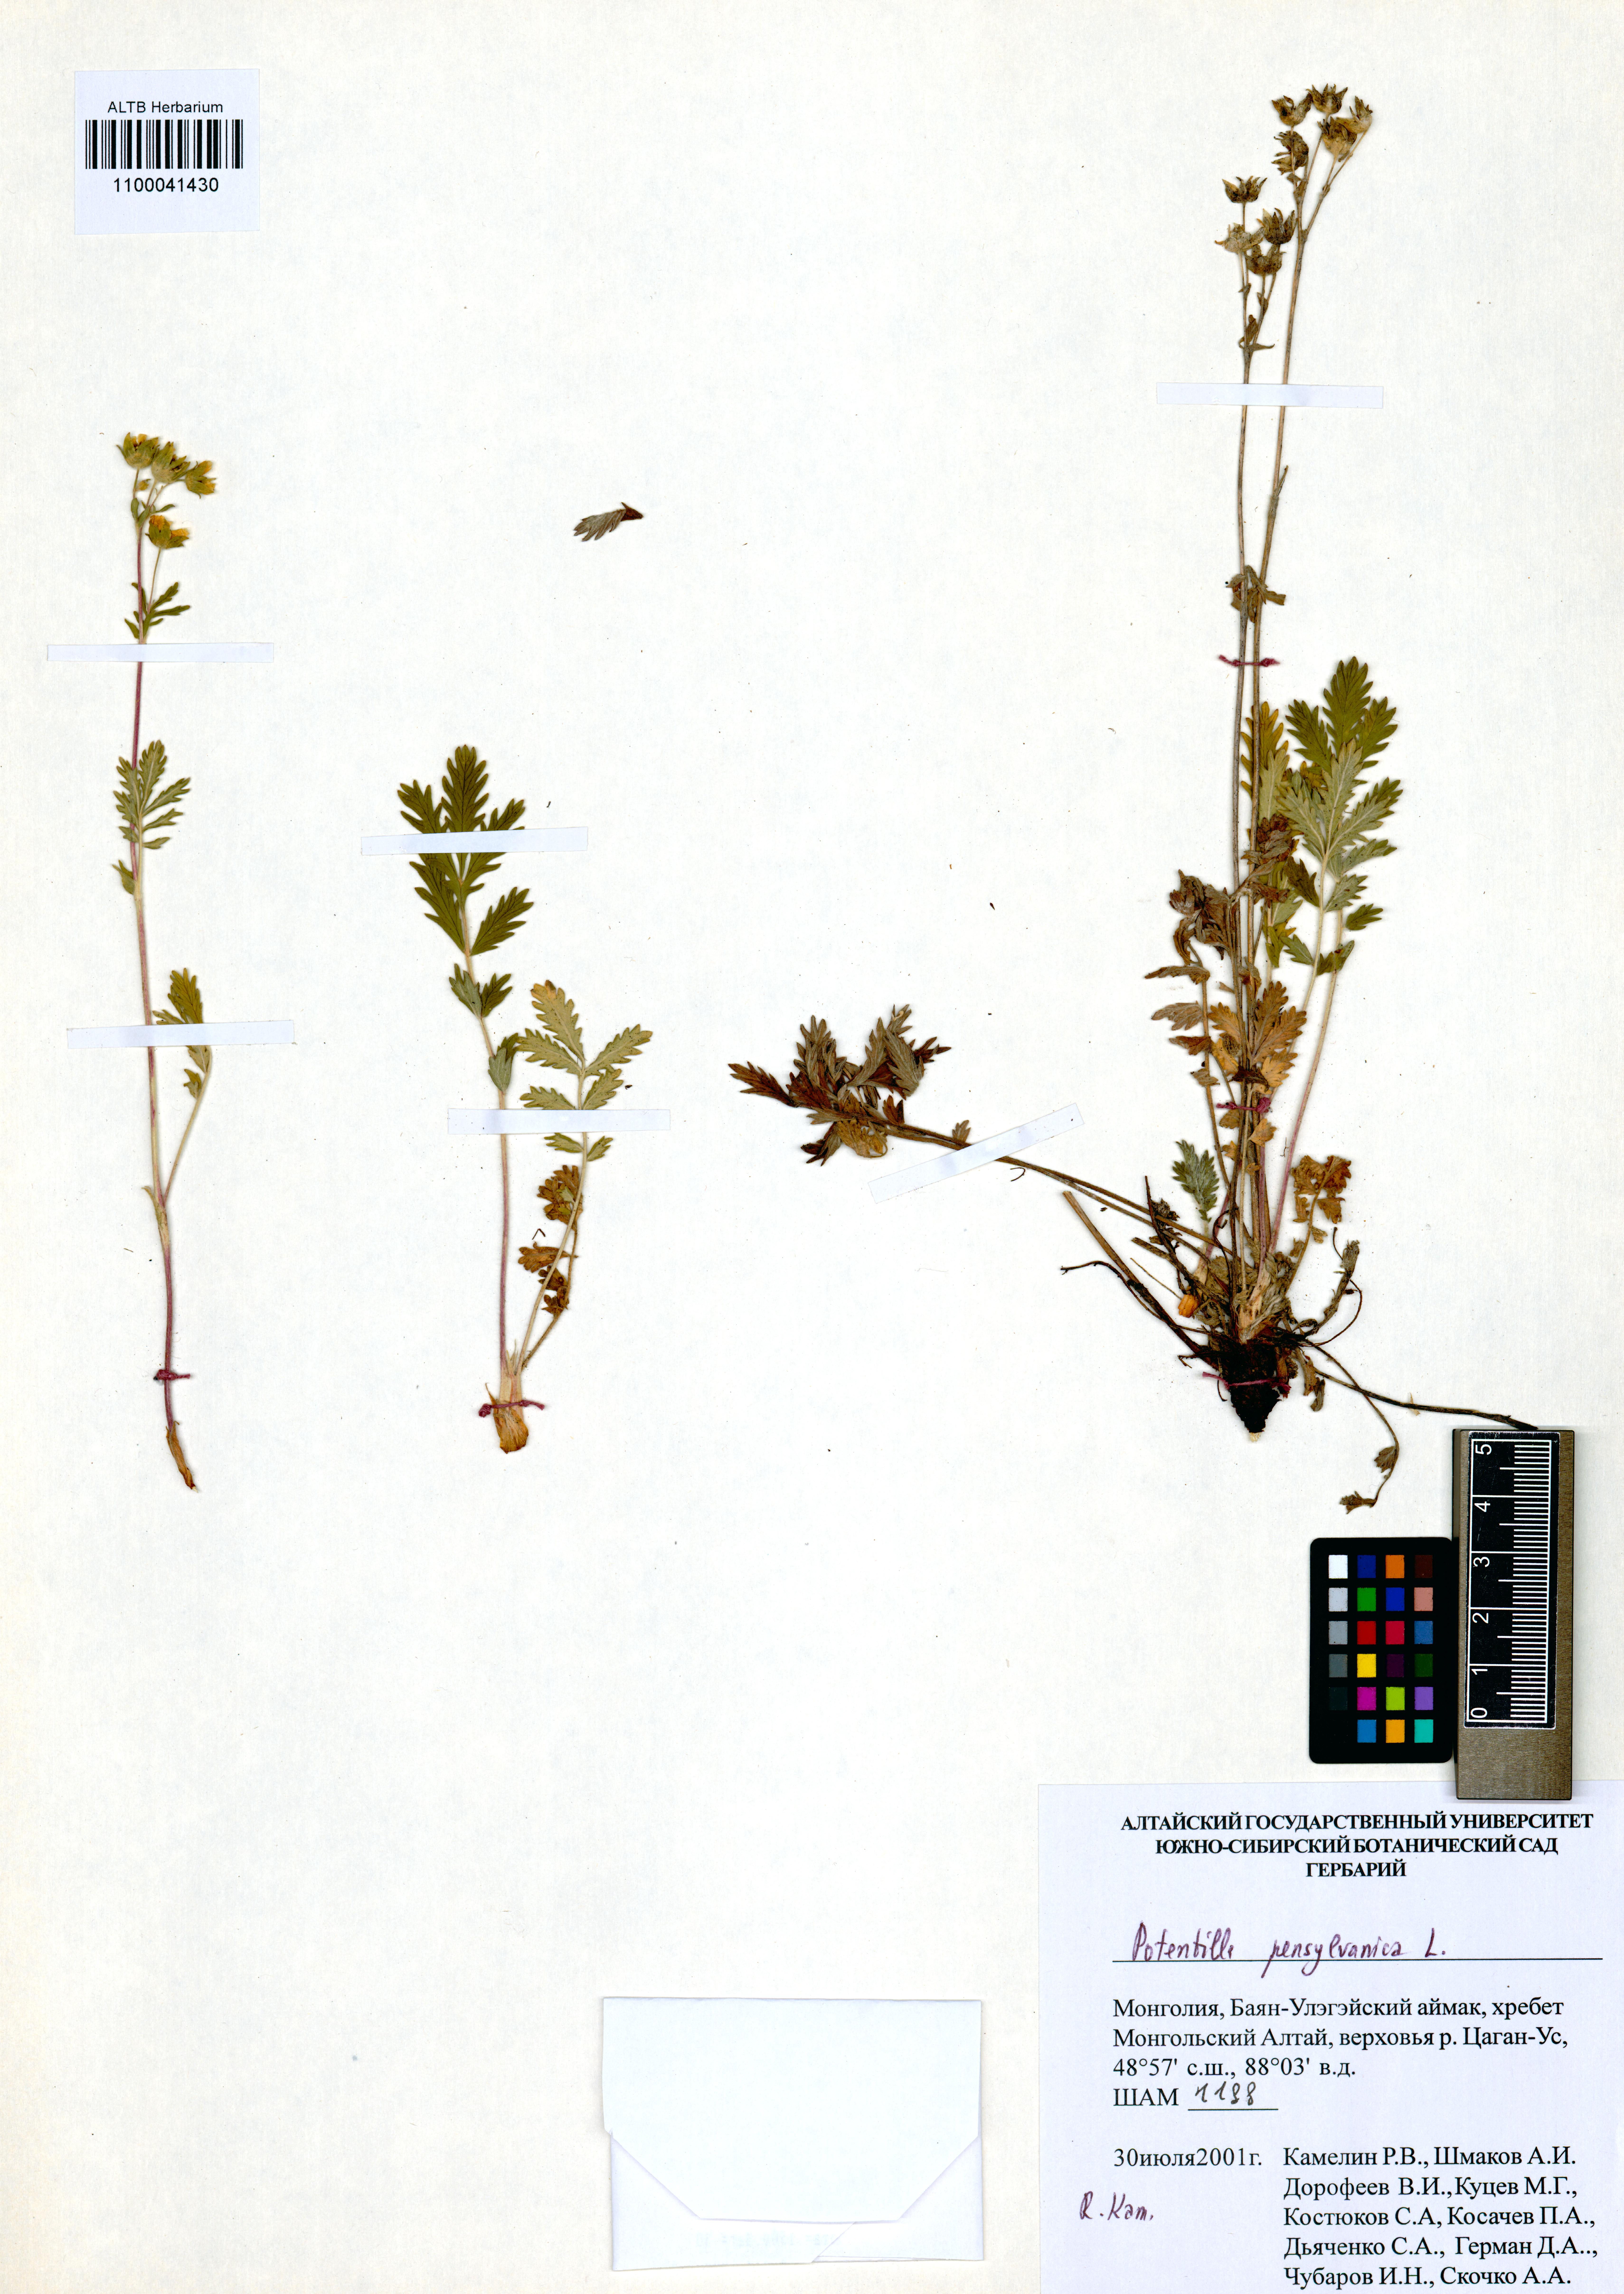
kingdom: Plantae
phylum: Tracheophyta
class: Magnoliopsida
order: Rosales
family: Rosaceae
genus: Potentilla
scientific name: Potentilla pensylvanica
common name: Pennsylvania cinquefoil
